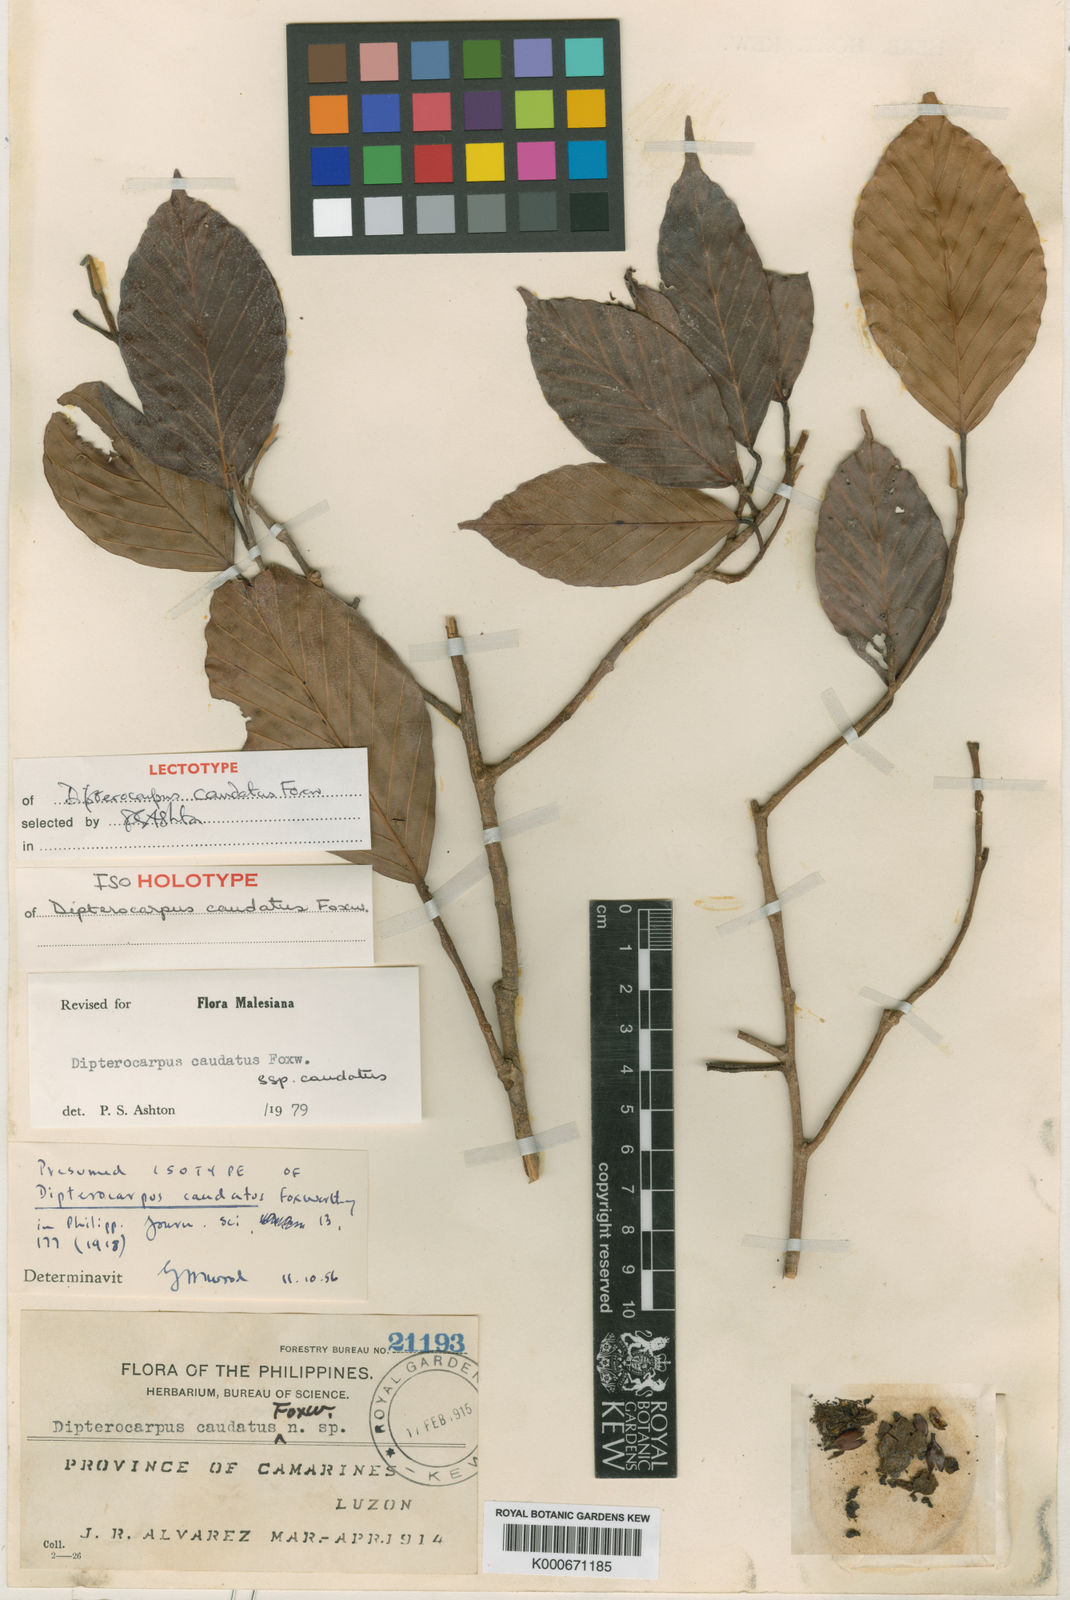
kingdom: Plantae
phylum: Tracheophyta
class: Magnoliopsida
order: Malvales
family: Dipterocarpaceae
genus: Dipterocarpus
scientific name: Dipterocarpus condorensis
